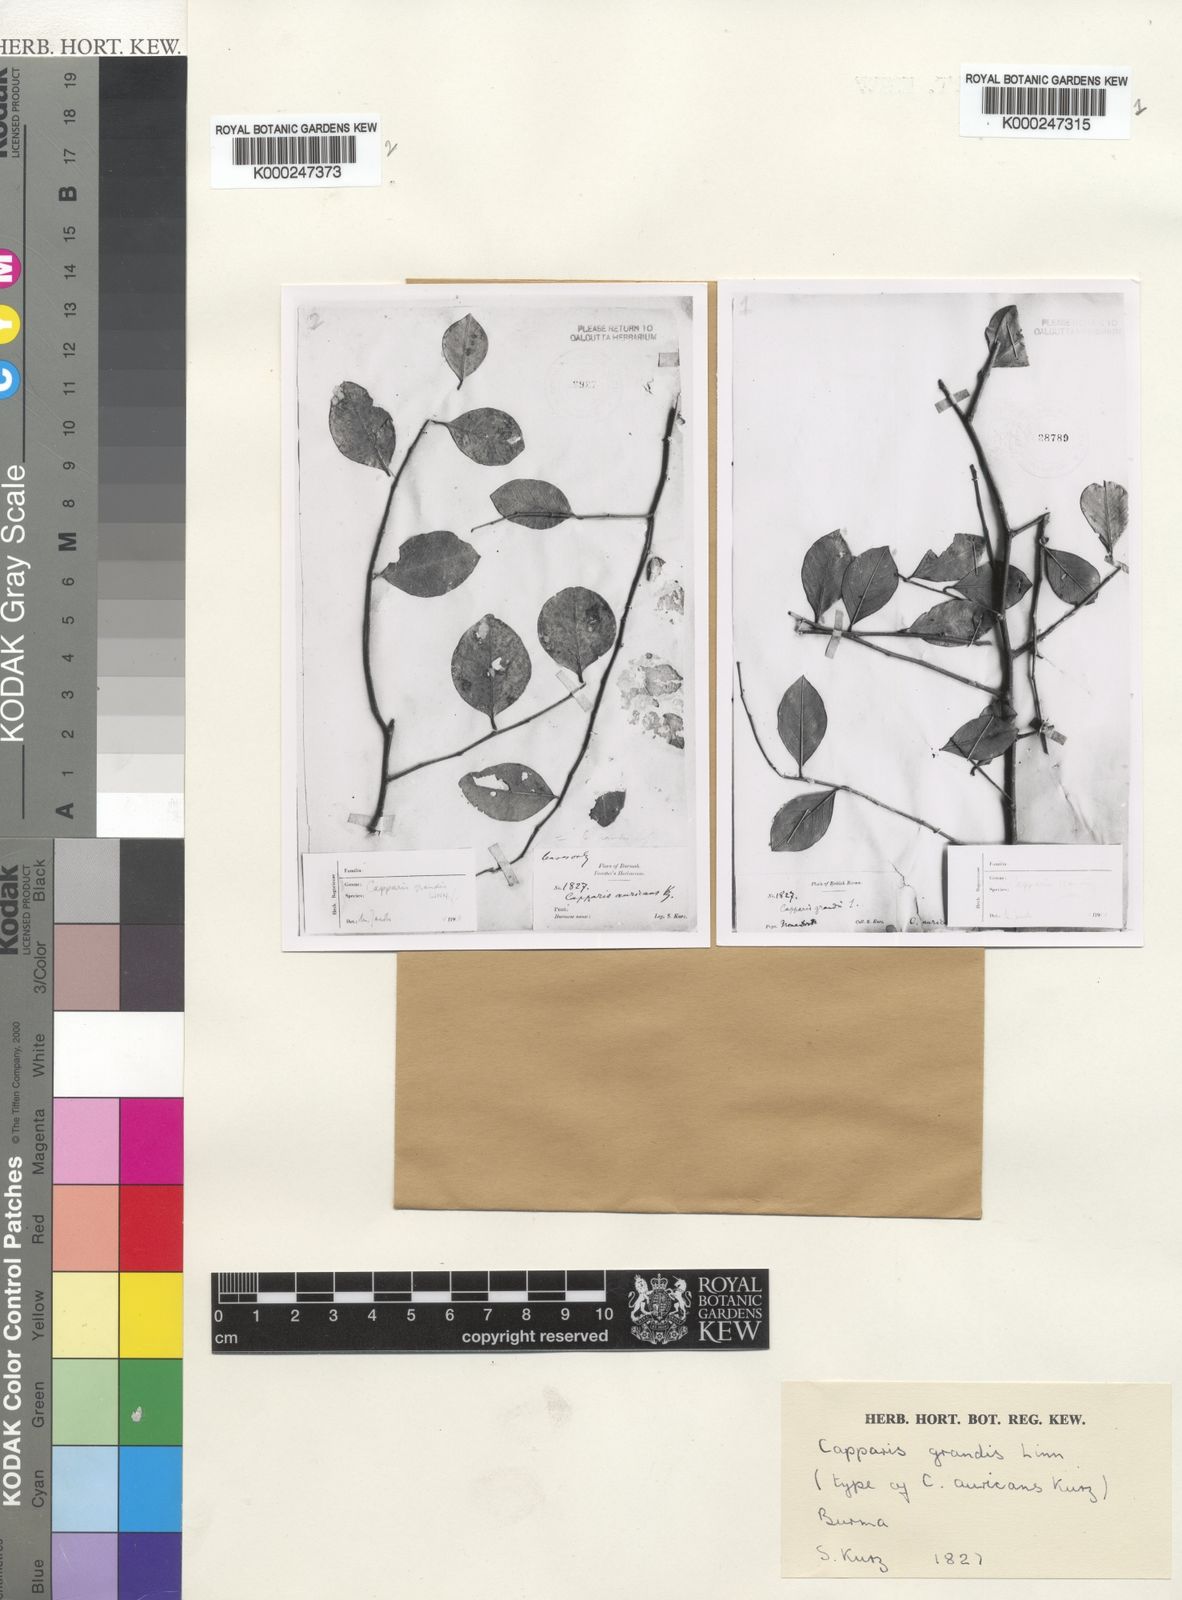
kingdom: Plantae
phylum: Tracheophyta
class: Magnoliopsida
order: Brassicales
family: Capparaceae
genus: Capparis
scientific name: Capparis grandis
